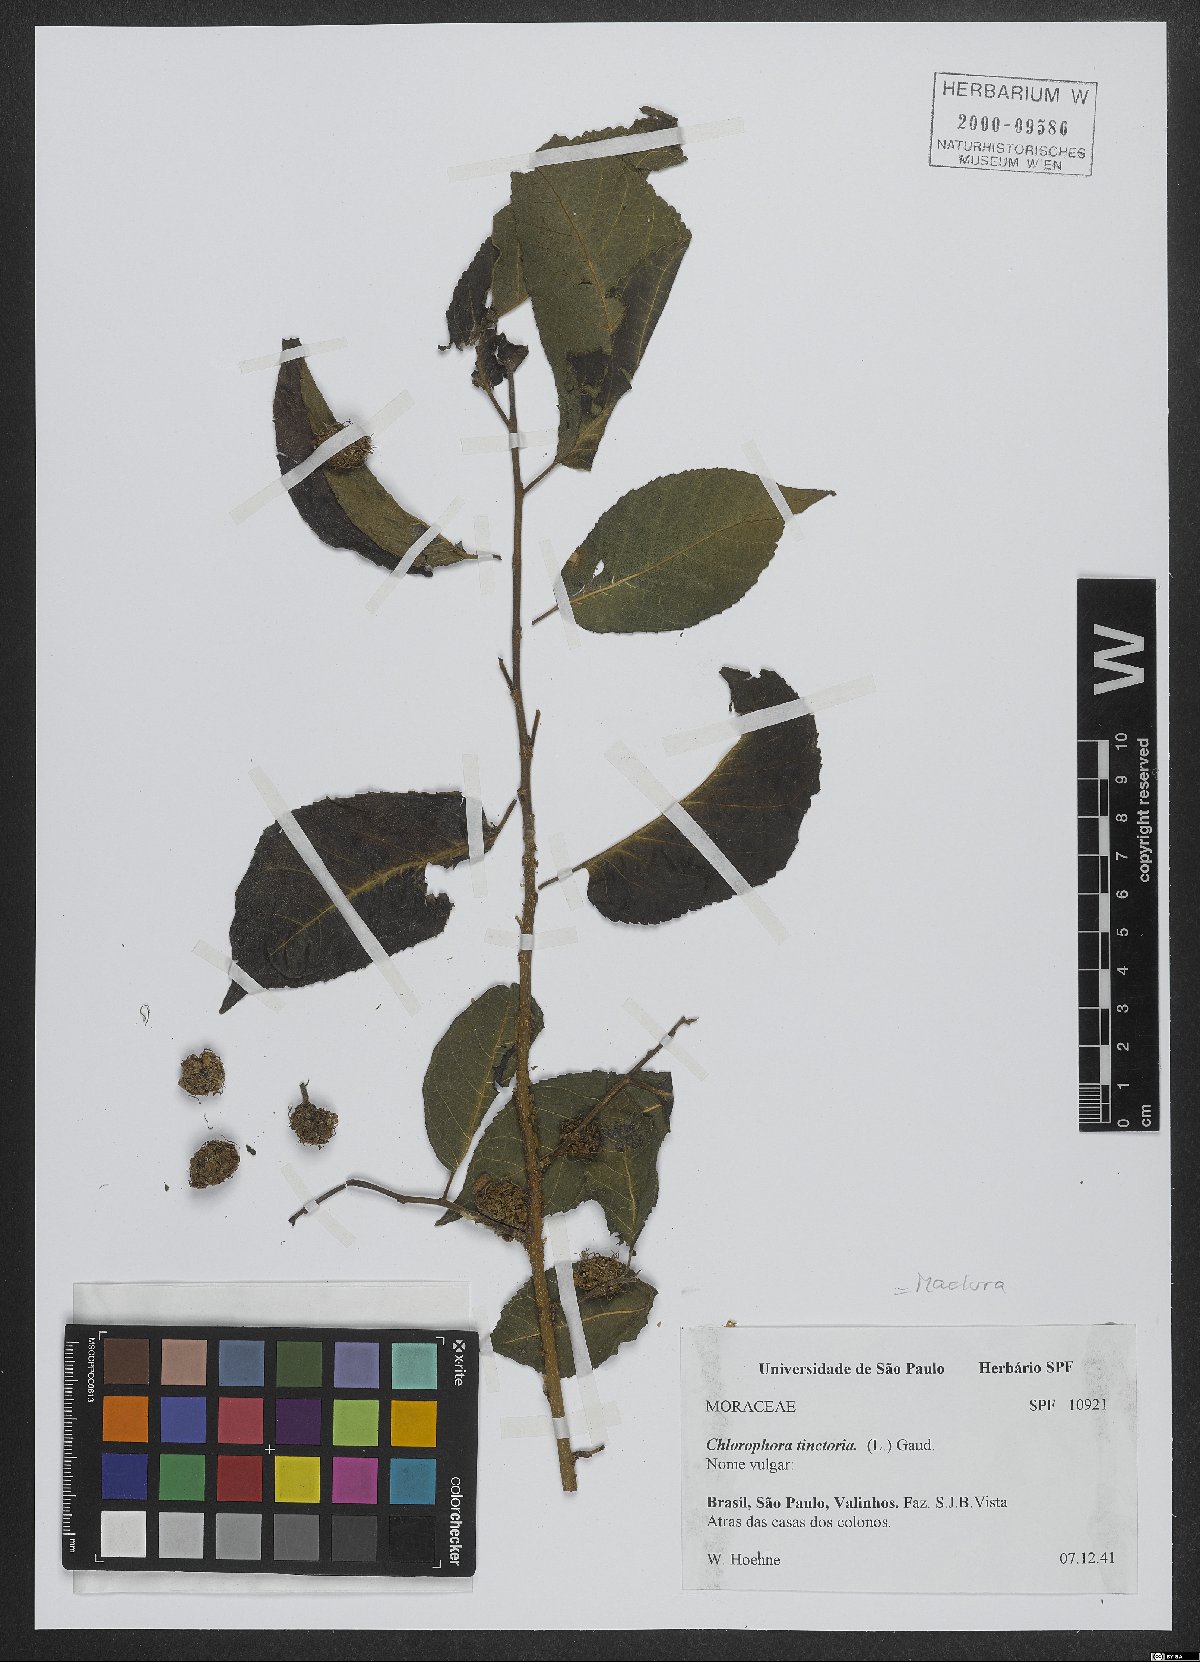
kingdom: Plantae
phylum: Tracheophyta
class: Magnoliopsida
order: Rosales
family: Moraceae
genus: Maclura
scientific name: Maclura tinctoria
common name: Old fustic
